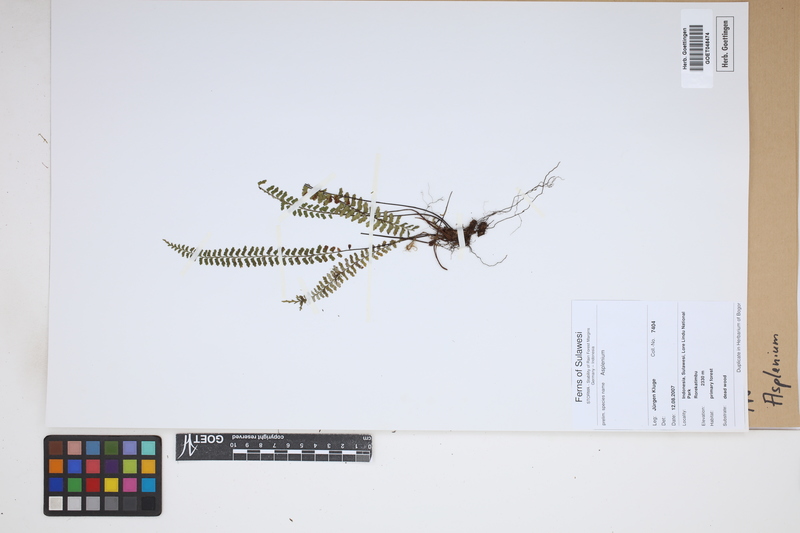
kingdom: Plantae
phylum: Tracheophyta
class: Polypodiopsida
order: Polypodiales
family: Aspleniaceae
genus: Asplenium
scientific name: Asplenium
